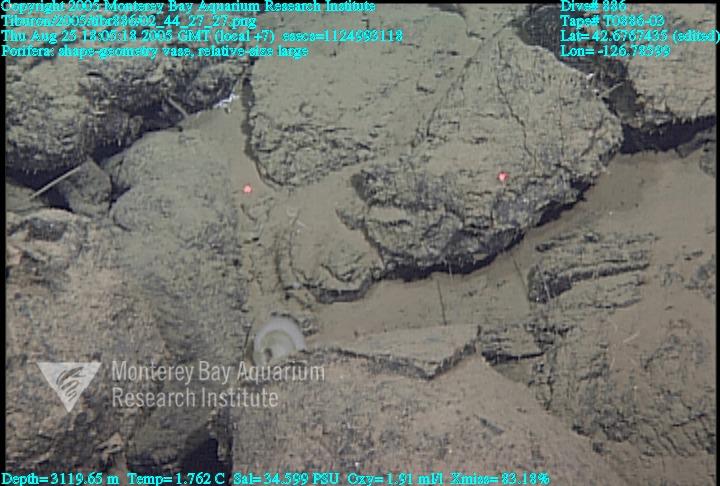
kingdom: Animalia
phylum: Porifera
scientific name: Porifera
